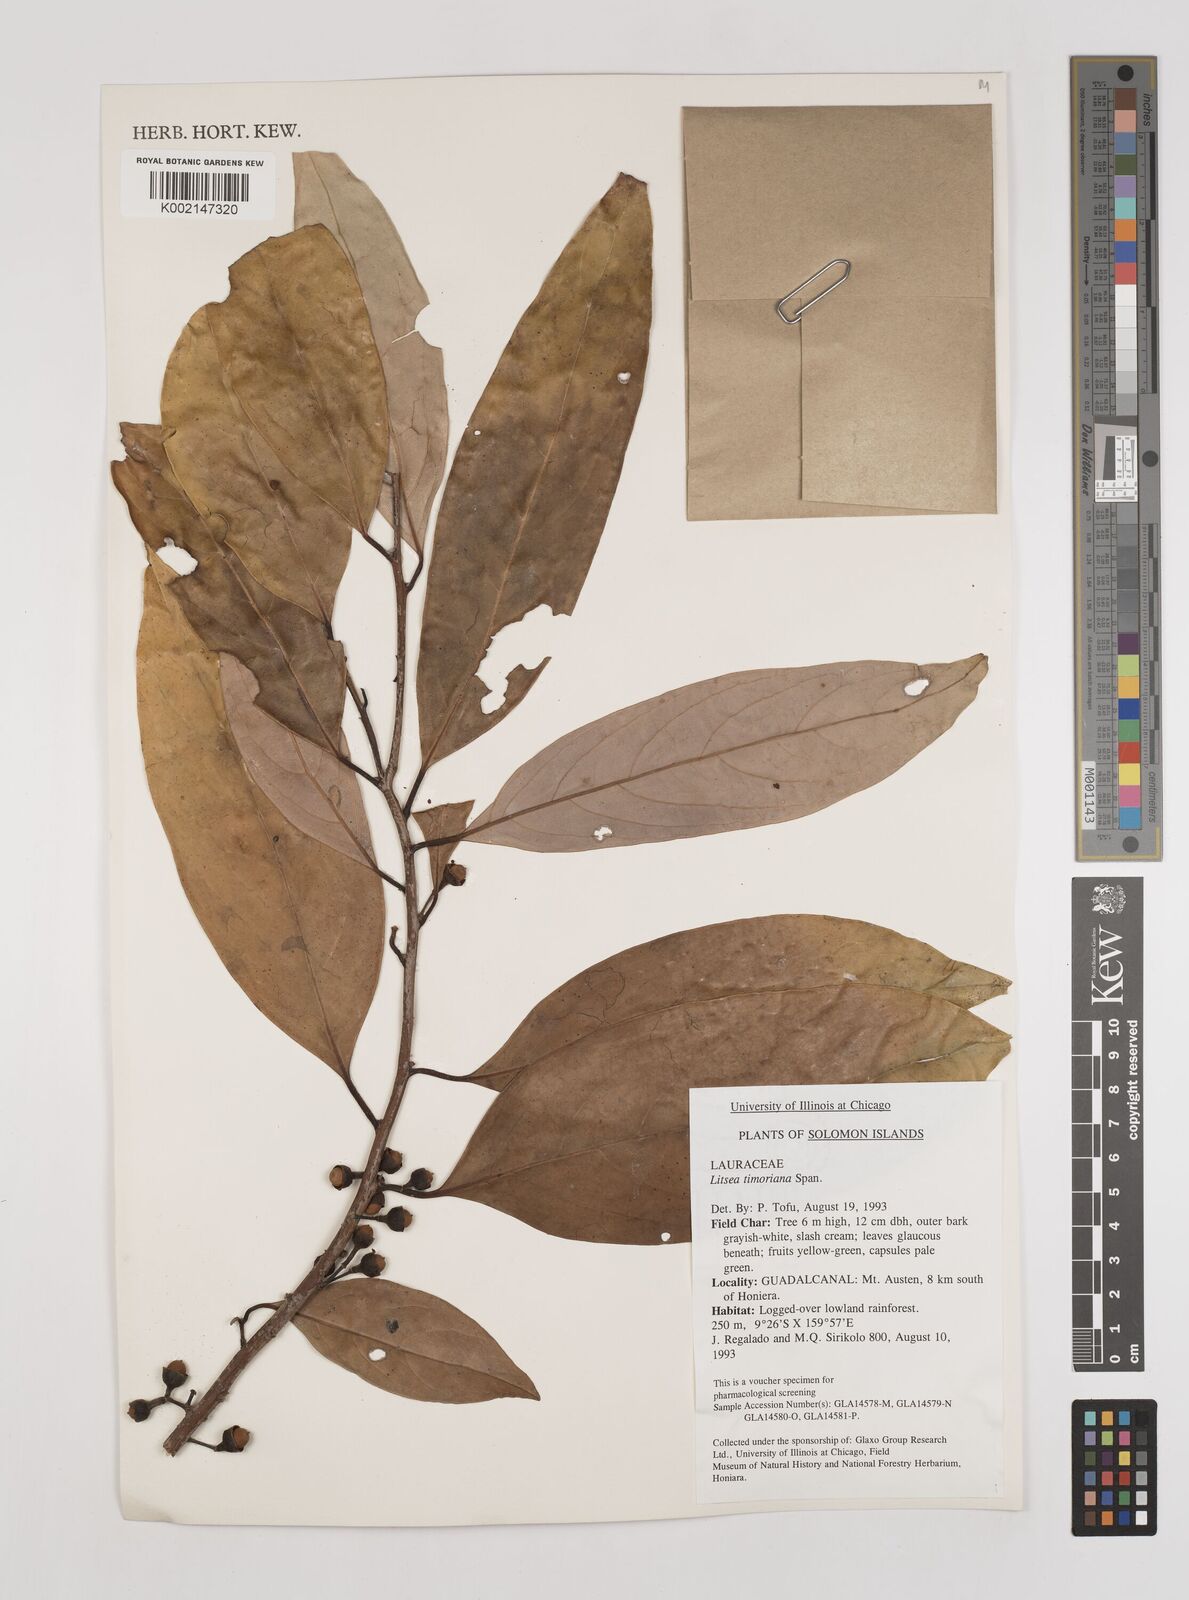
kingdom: Plantae
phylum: Tracheophyta
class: Magnoliopsida
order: Laurales
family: Lauraceae
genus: Litsea
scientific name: Litsea timoriana
